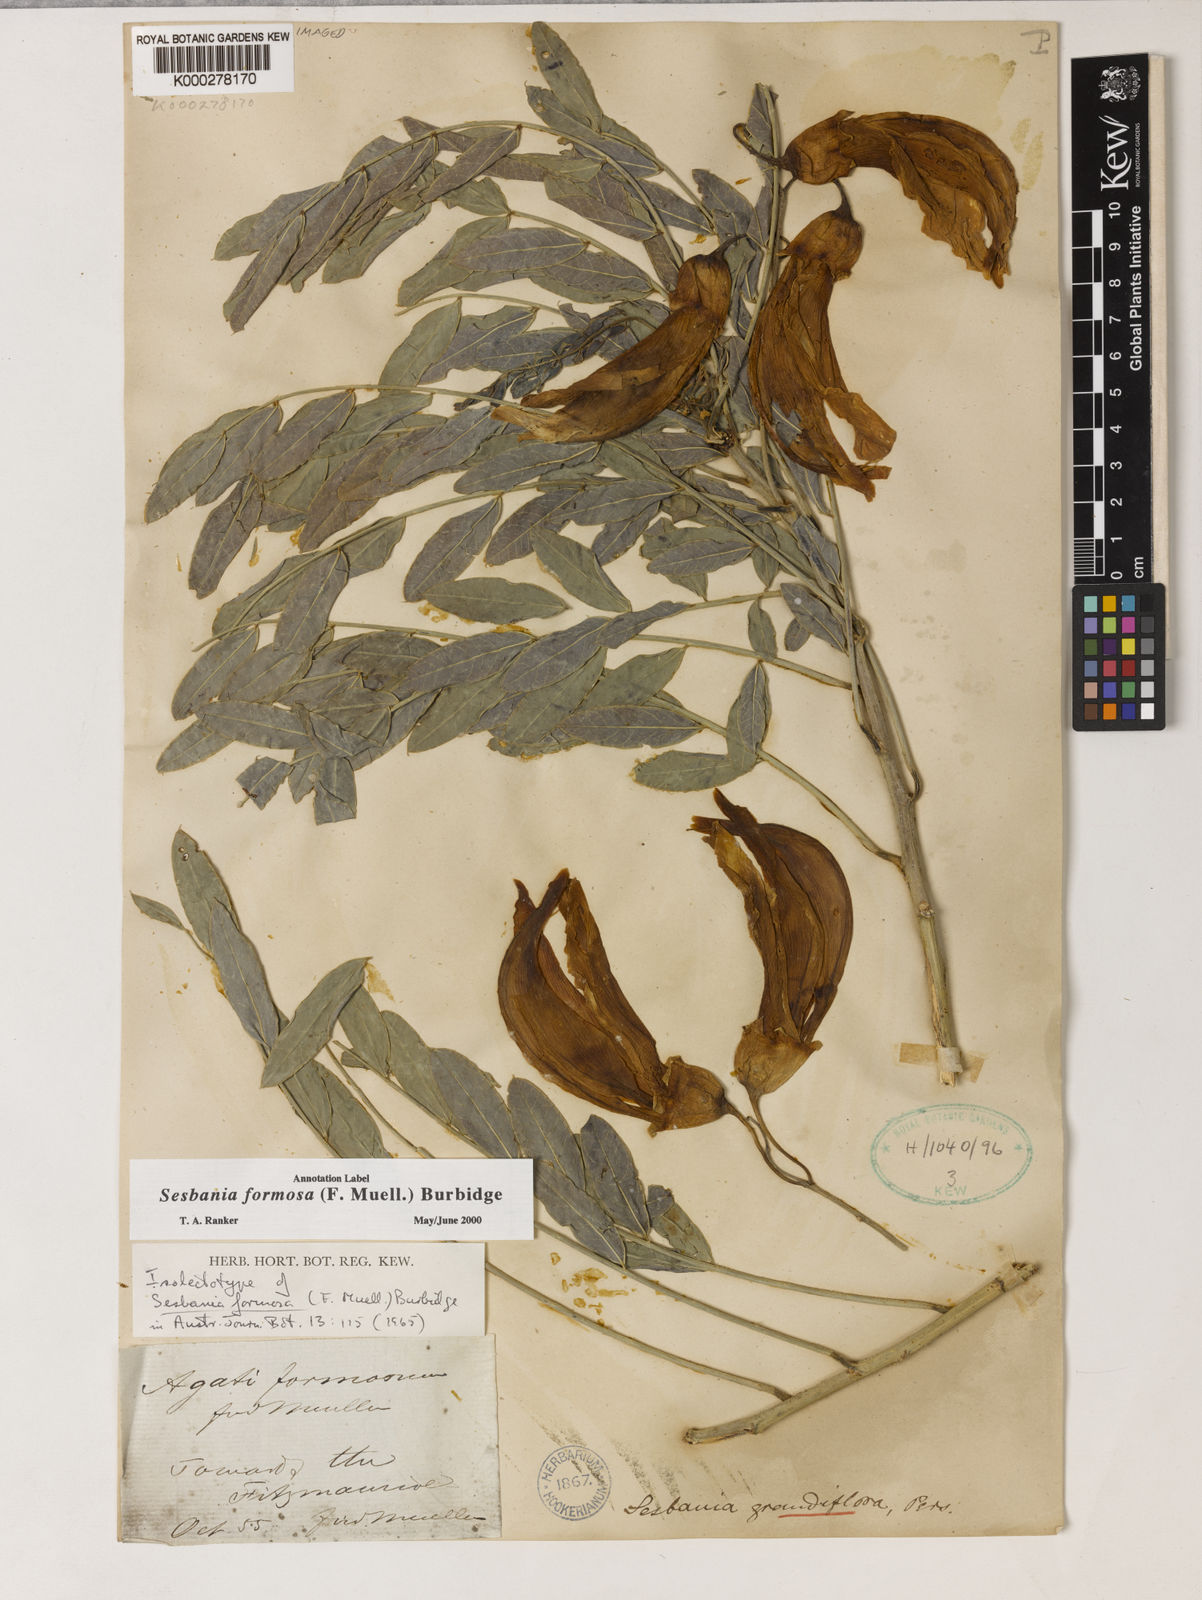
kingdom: Plantae
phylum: Tracheophyta
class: Magnoliopsida
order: Fabales
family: Fabaceae
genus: Sesbania
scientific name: Sesbania formosa
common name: Vegetable-hummingbird
